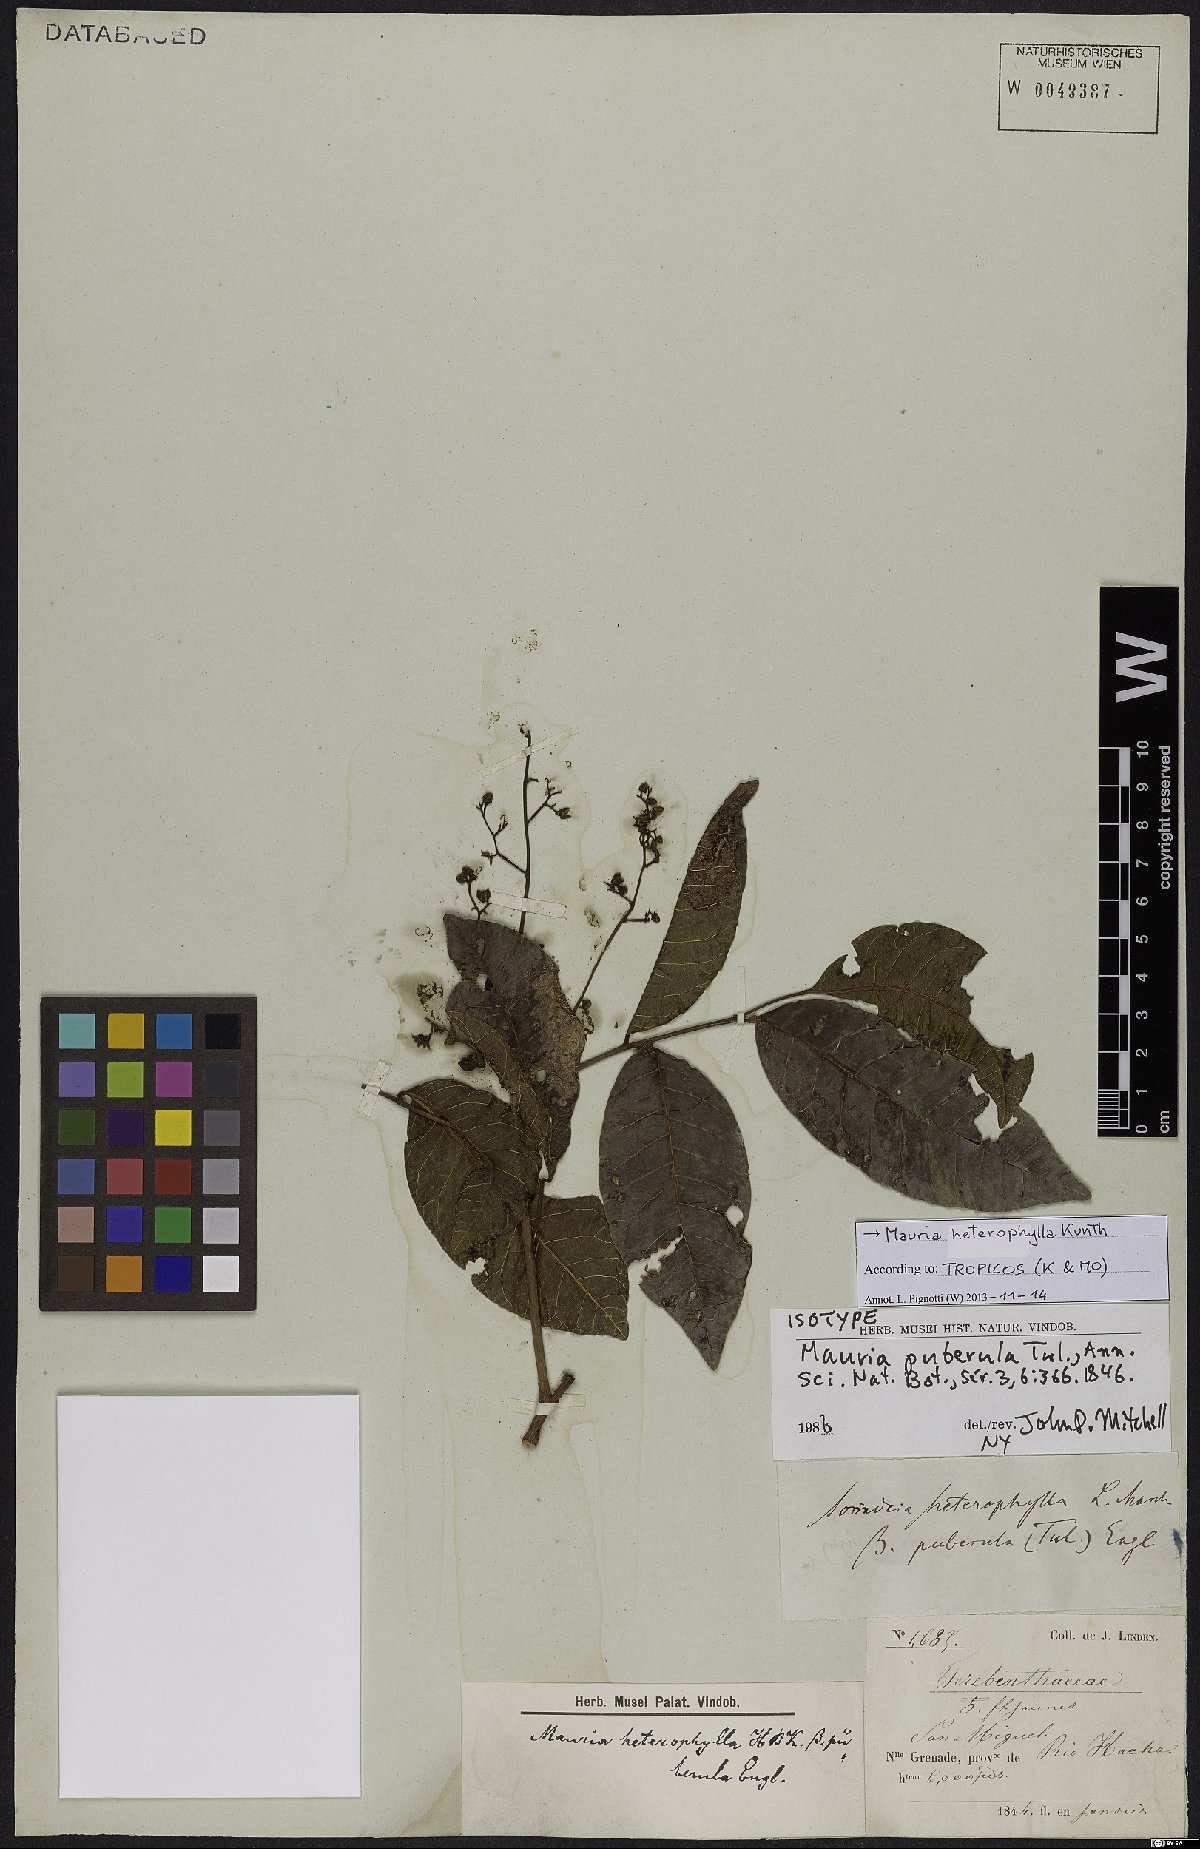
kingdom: Plantae
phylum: Tracheophyta
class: Magnoliopsida
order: Sapindales
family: Anacardiaceae
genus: Mauria
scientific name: Mauria heterophylla
